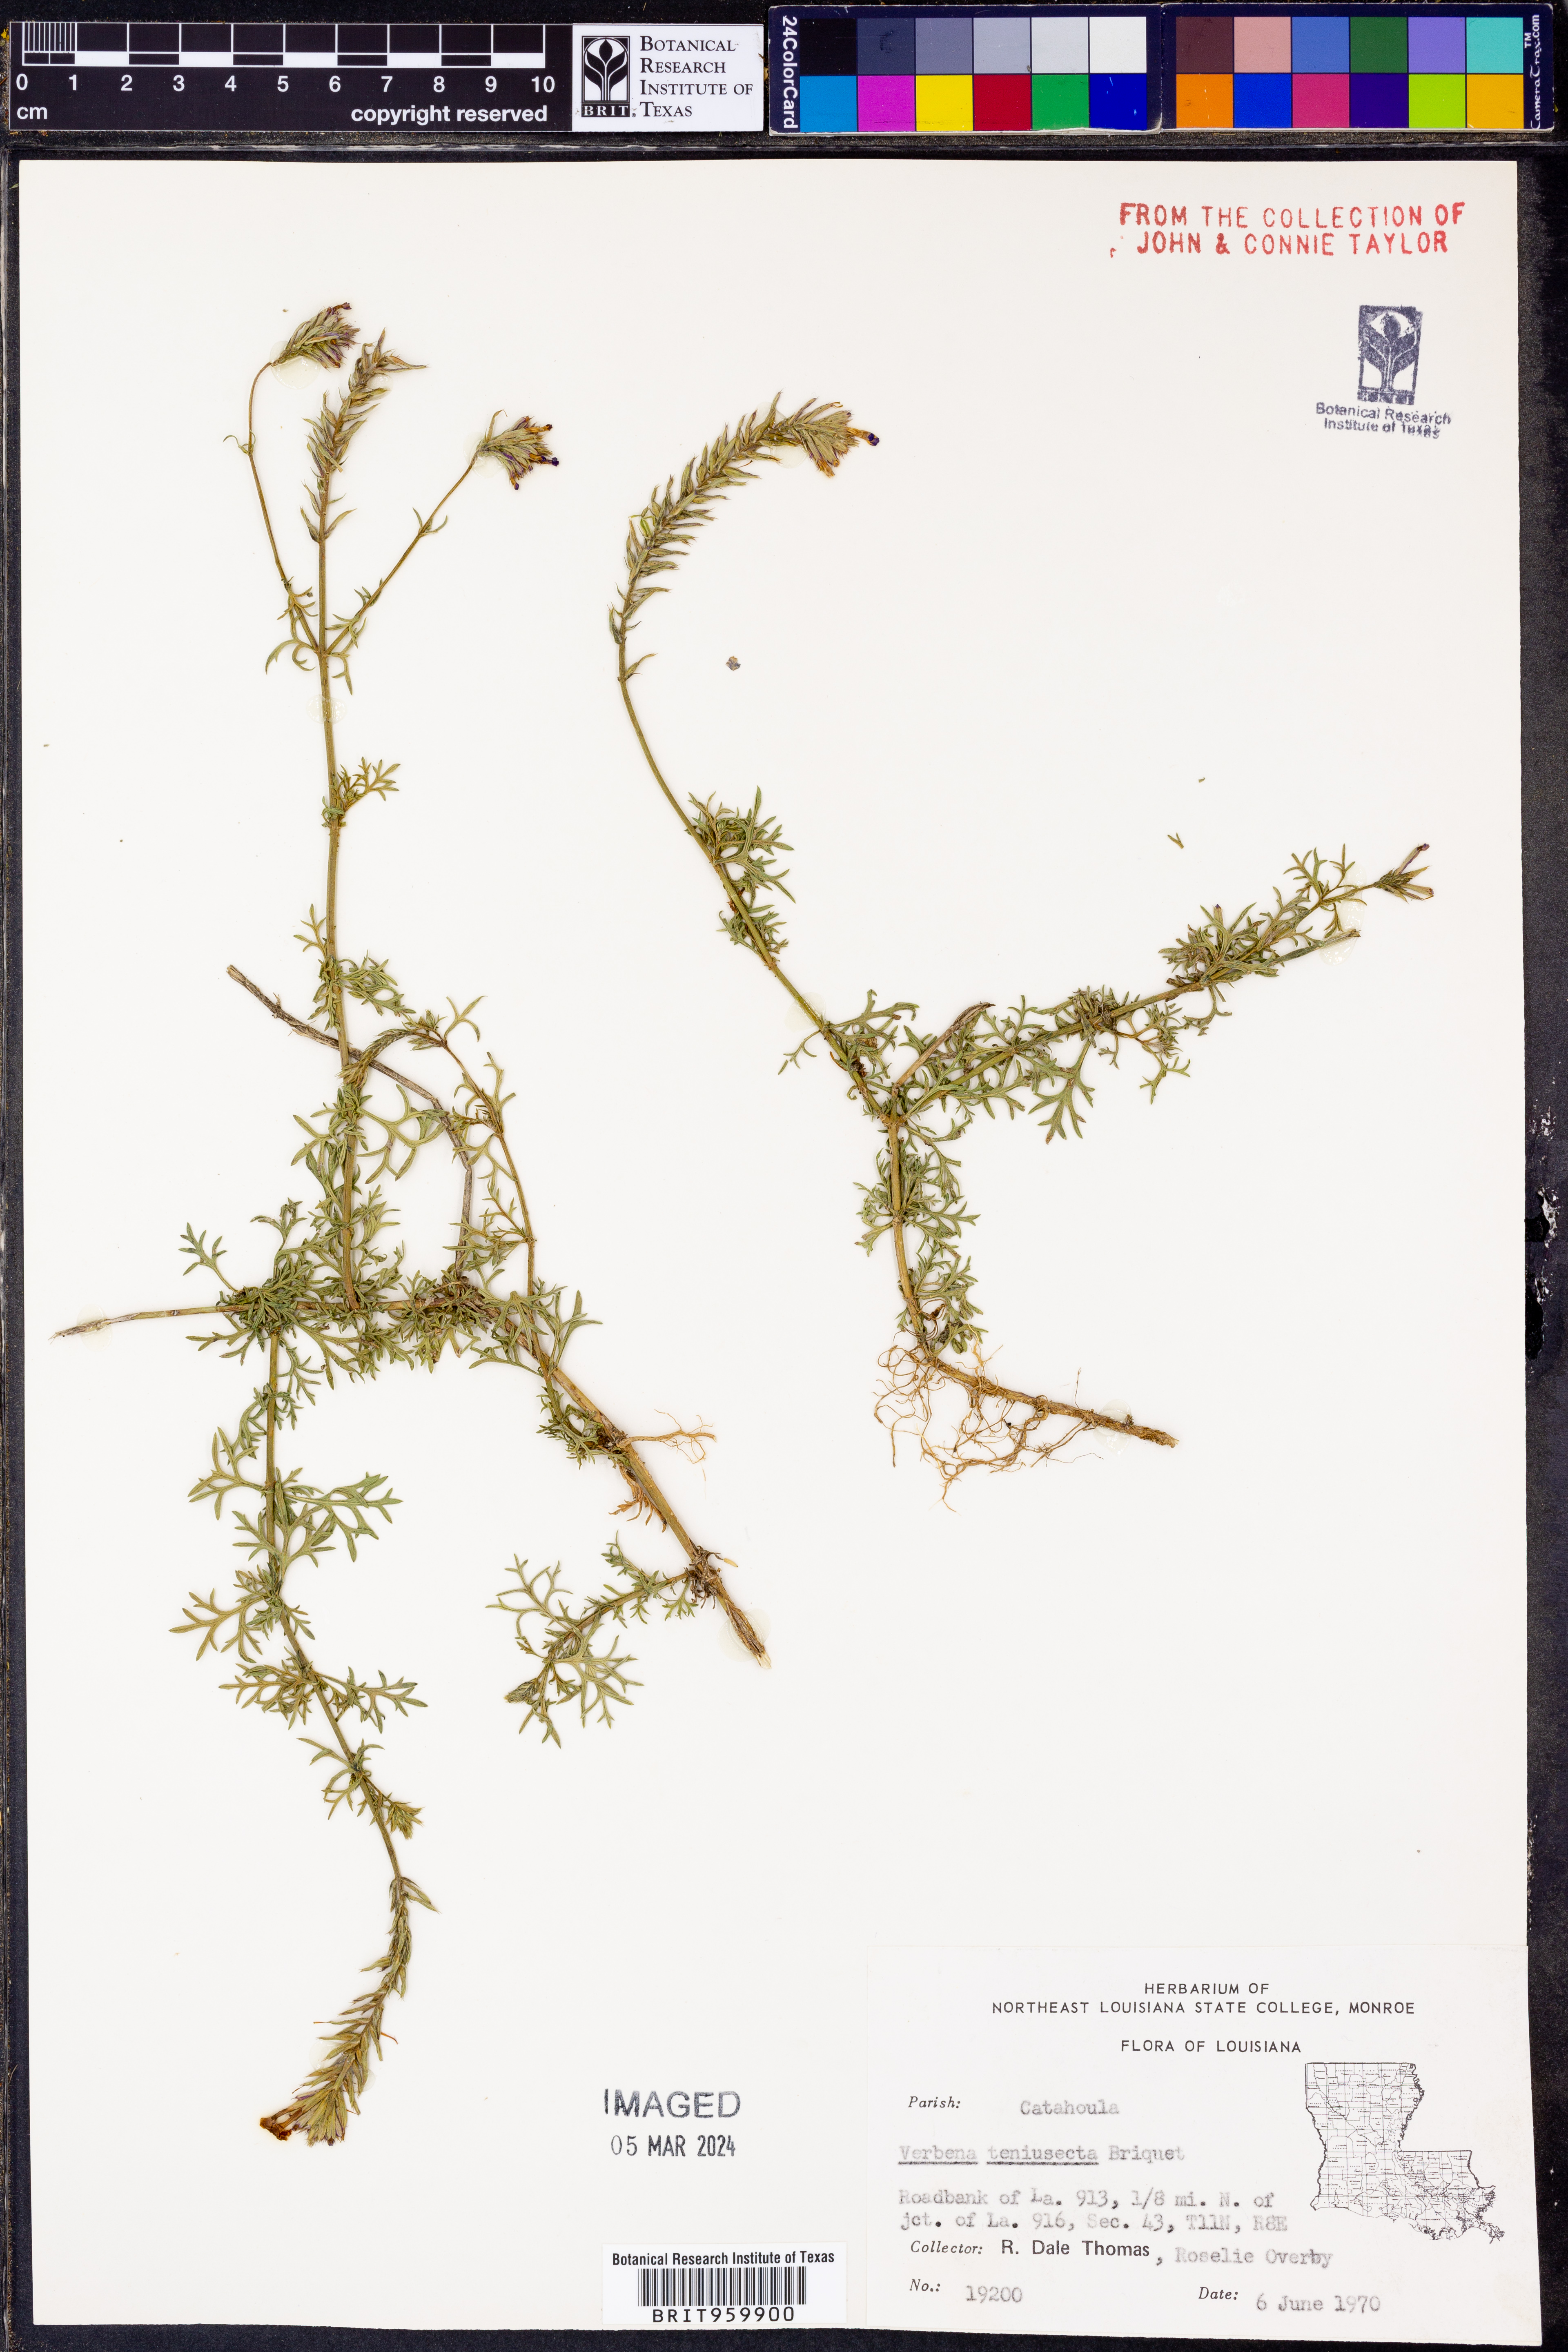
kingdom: Plantae
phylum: Tracheophyta
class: Magnoliopsida
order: Lamiales
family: Verbenaceae
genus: Verbena
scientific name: Verbena tenera
